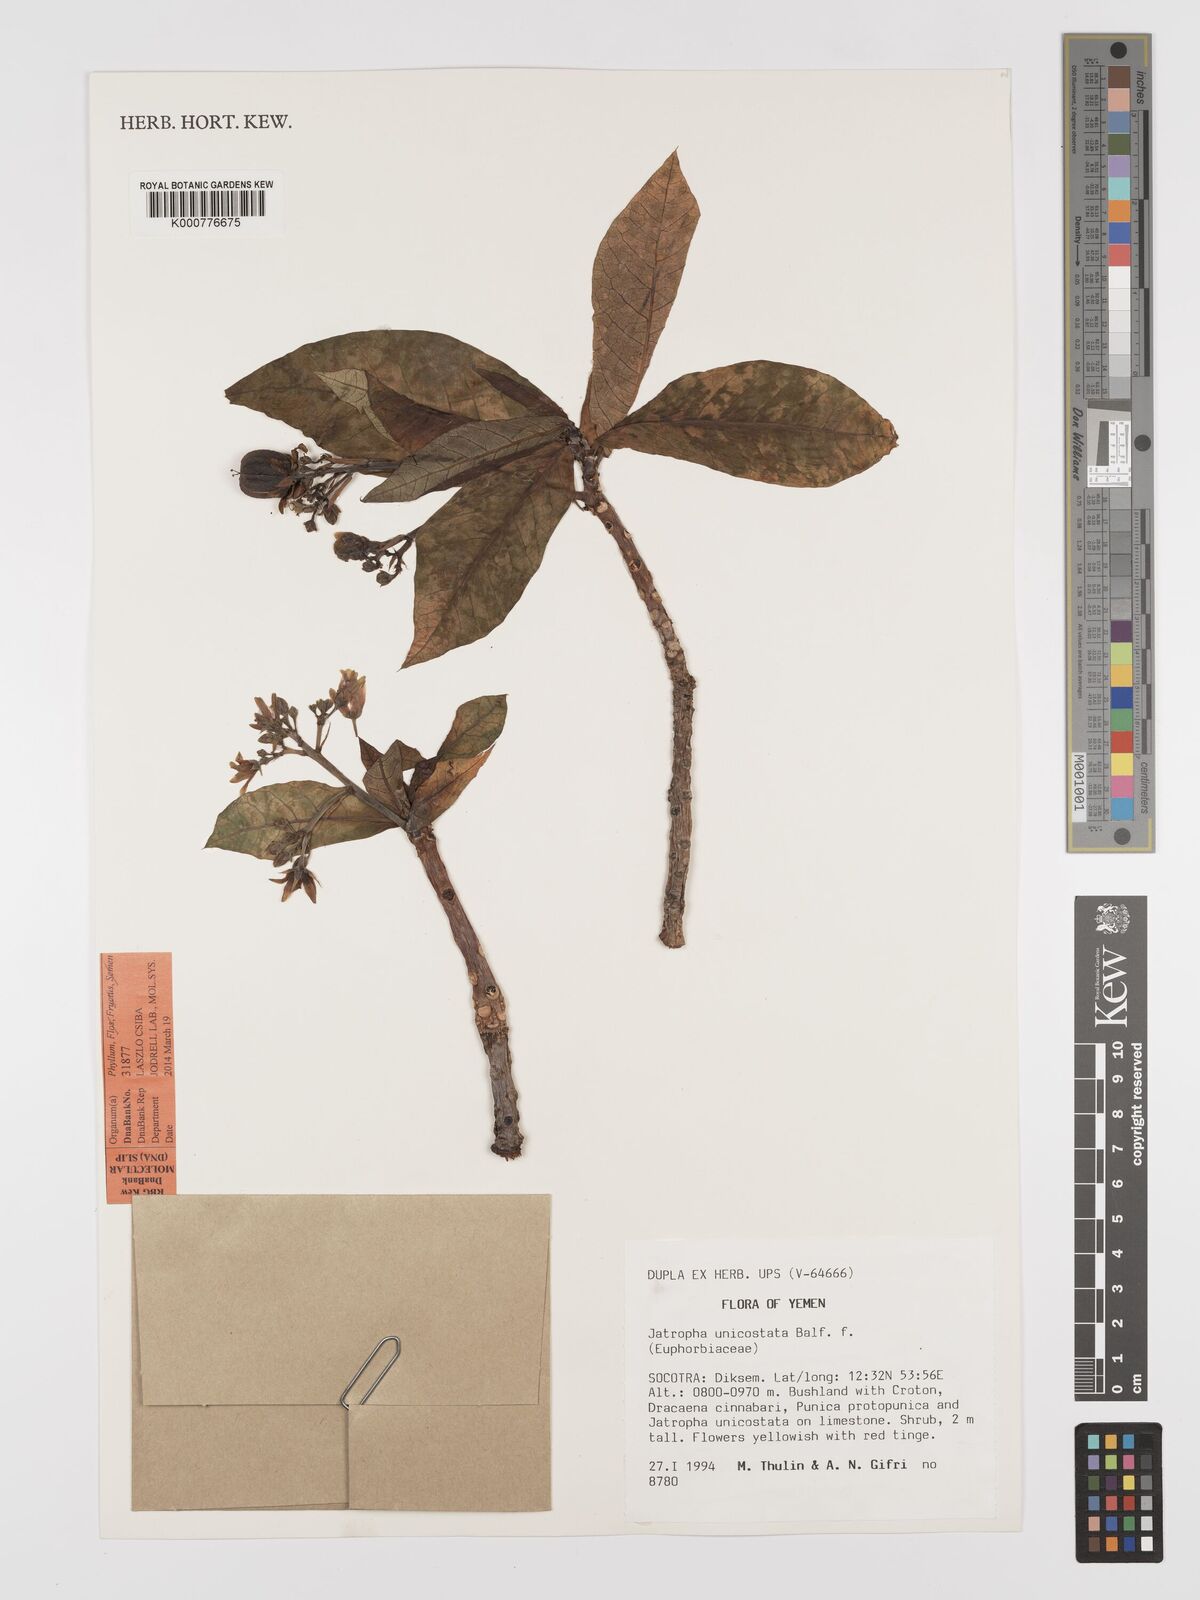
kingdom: Plantae
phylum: Tracheophyta
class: Magnoliopsida
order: Malpighiales
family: Euphorbiaceae
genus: Jatropha
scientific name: Jatropha unicostata
